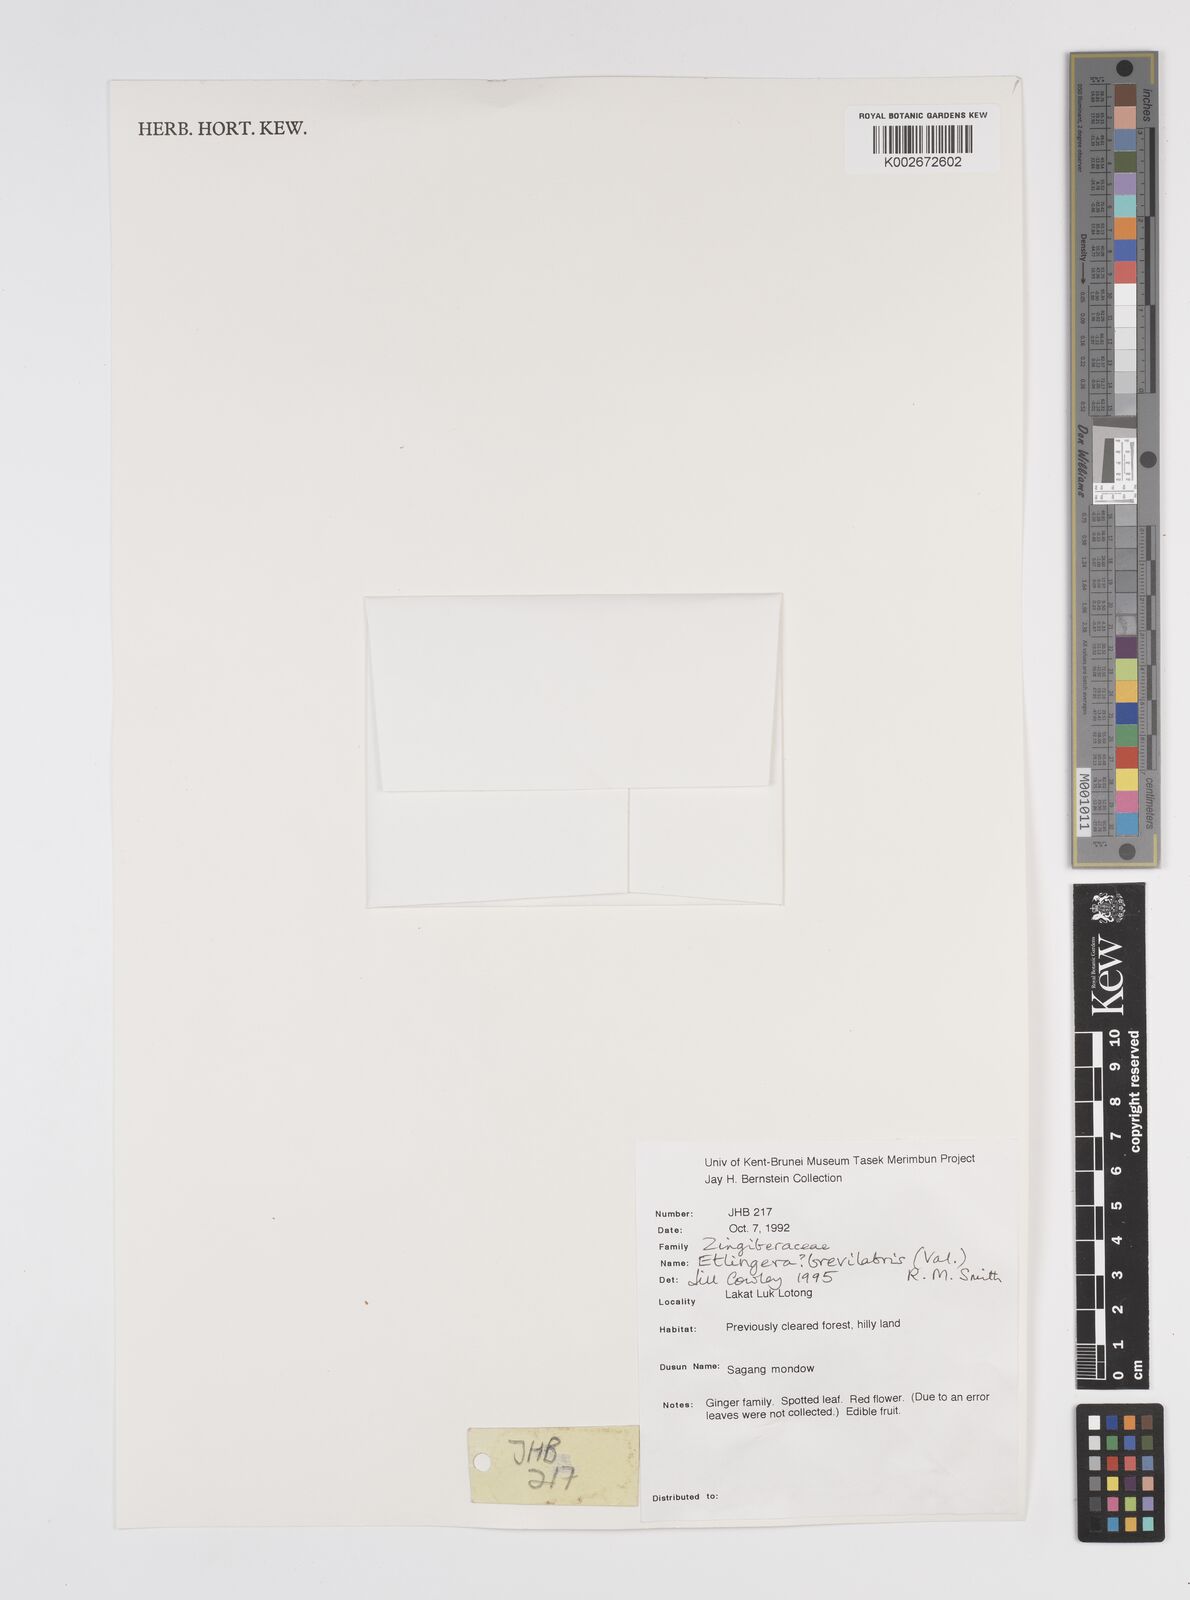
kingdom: Plantae
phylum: Tracheophyta
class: Liliopsida
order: Zingiberales
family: Zingiberaceae
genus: Etlingera
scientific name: Etlingera
